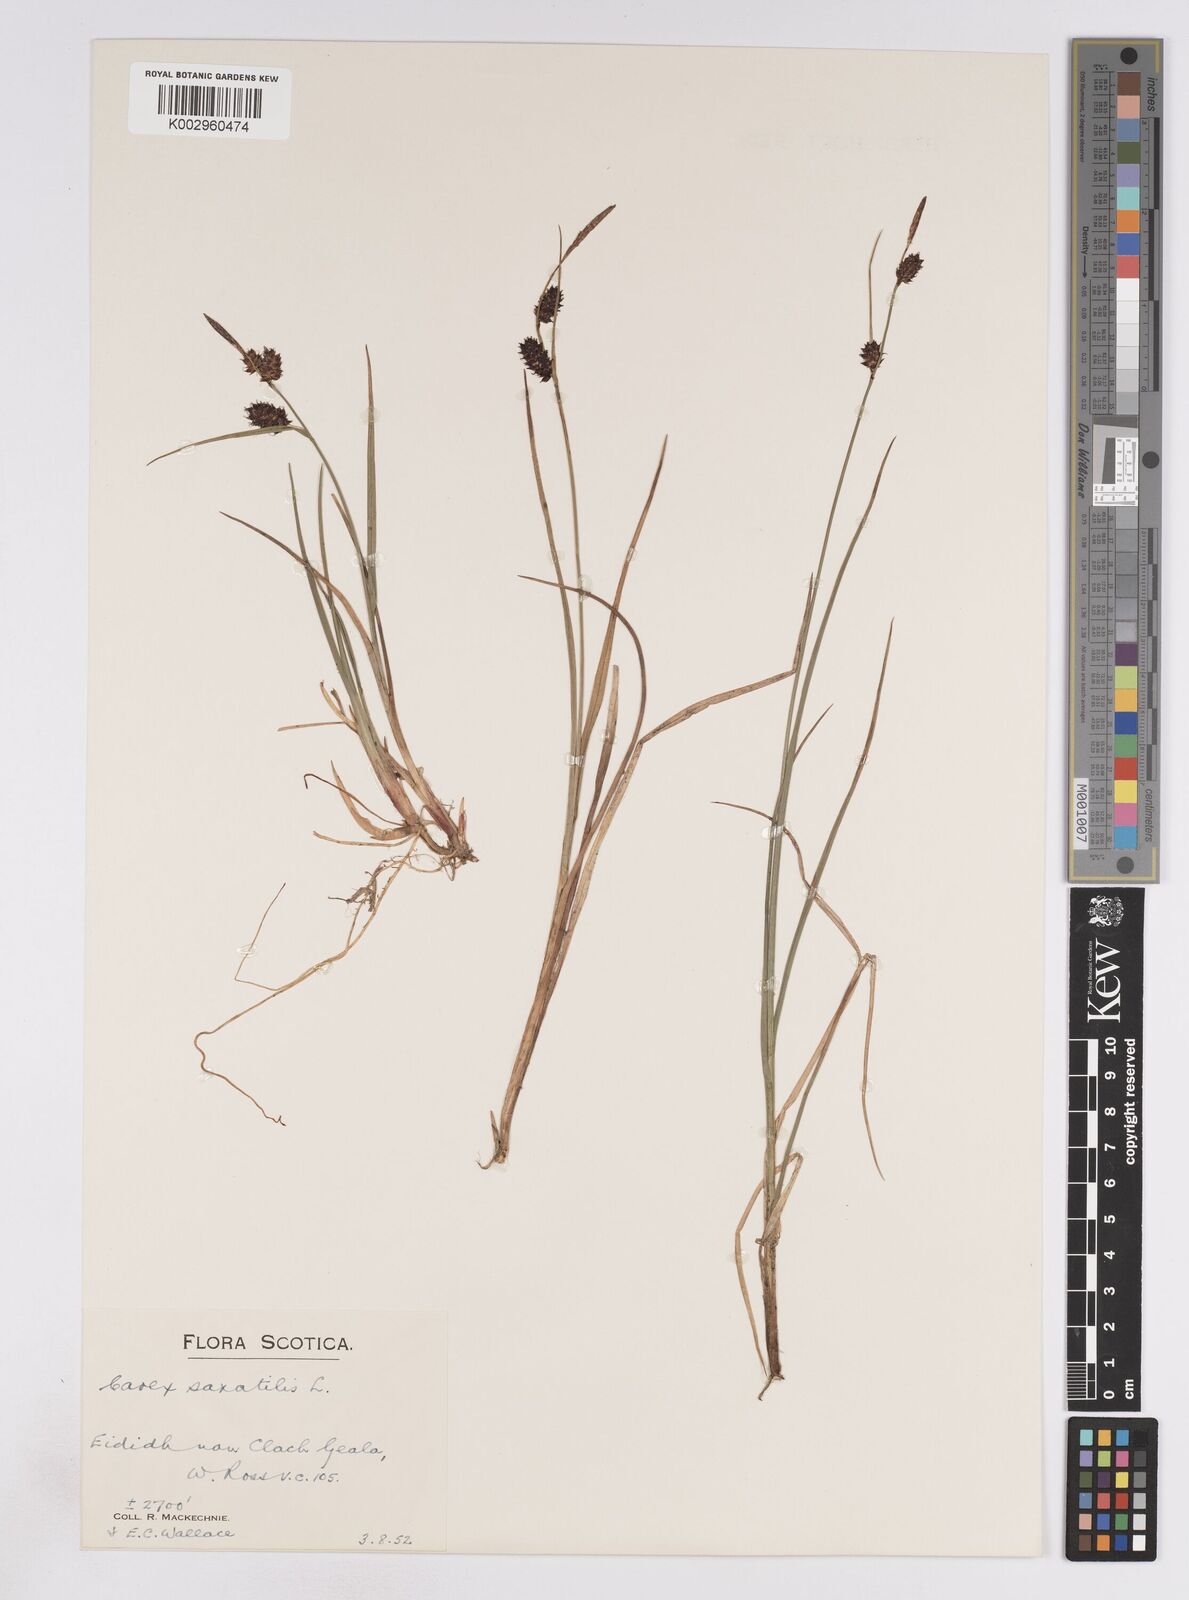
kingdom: Plantae
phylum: Tracheophyta
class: Liliopsida
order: Poales
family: Cyperaceae
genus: Carex
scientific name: Carex saxatilis
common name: Russet sedge
